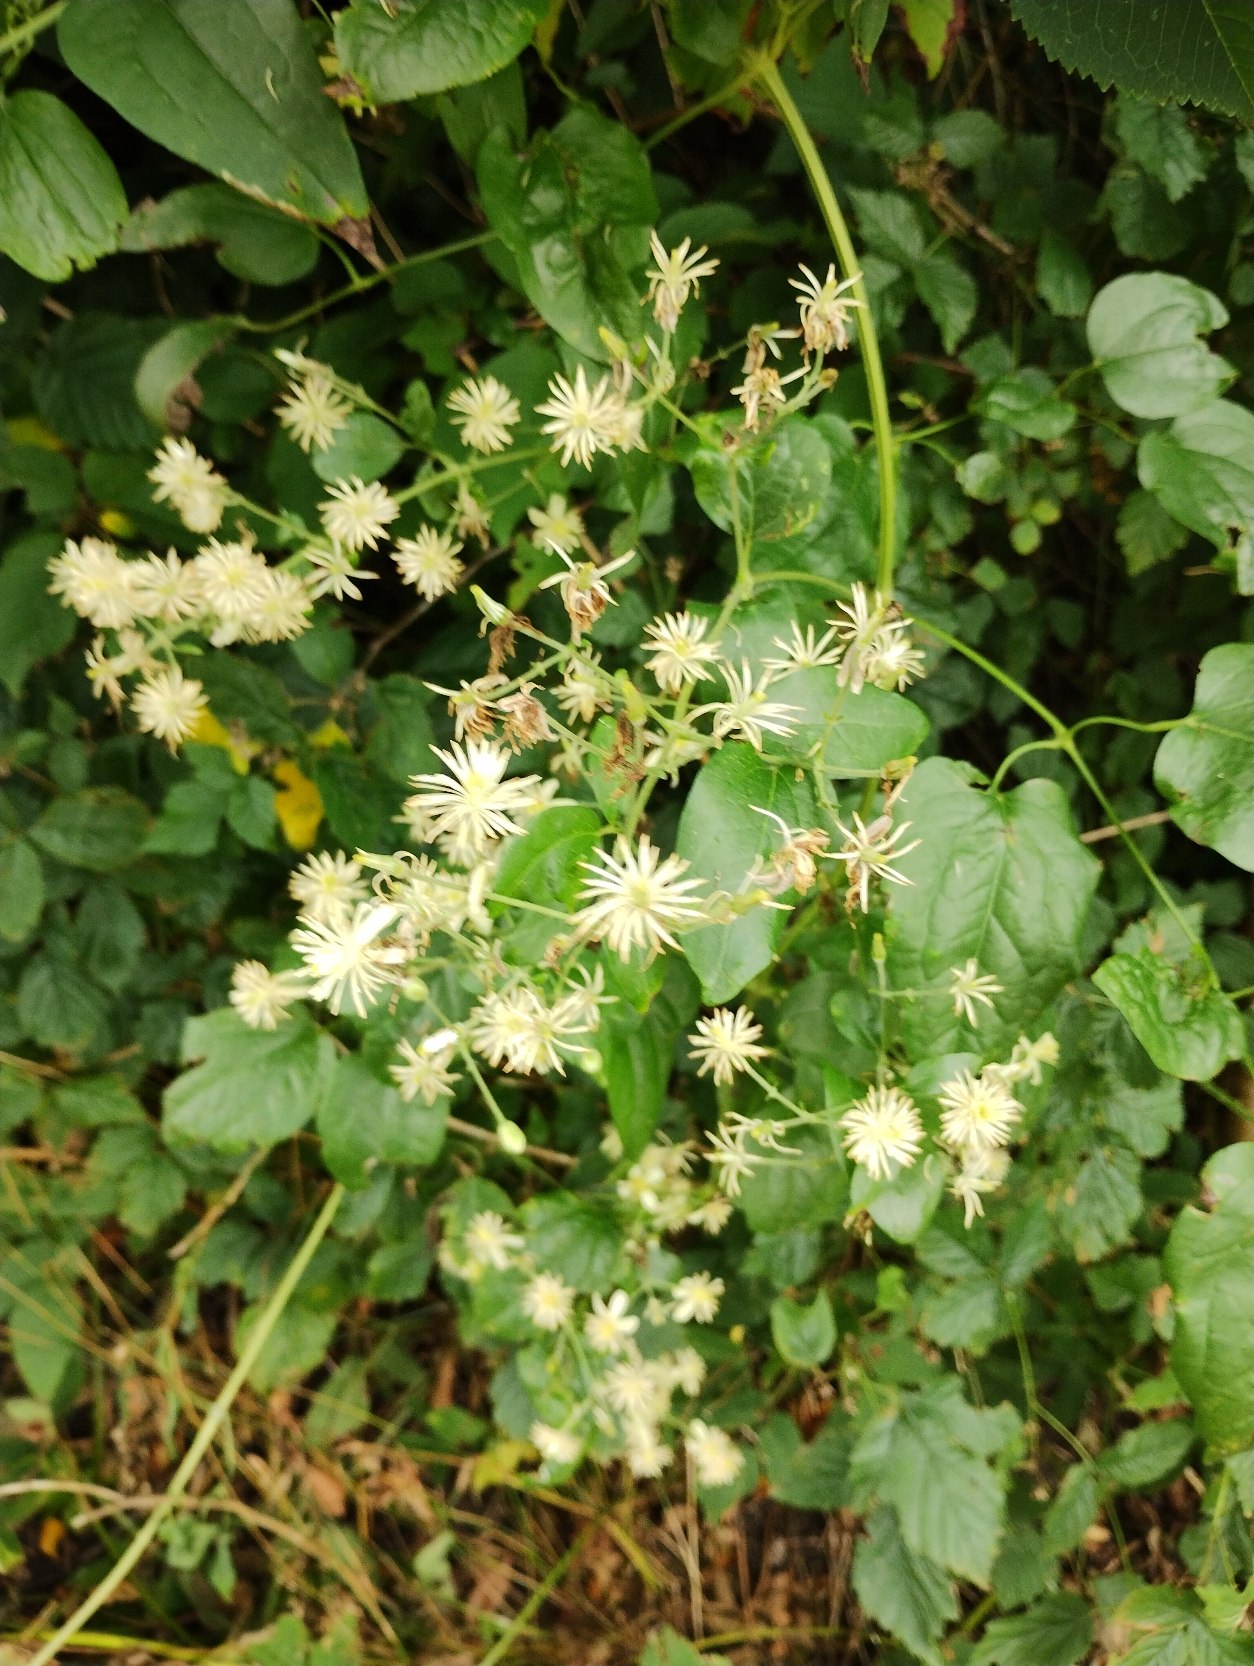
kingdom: Plantae
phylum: Tracheophyta
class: Magnoliopsida
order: Ranunculales
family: Ranunculaceae
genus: Clematis
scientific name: Clematis vitalba
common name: Skovranke
